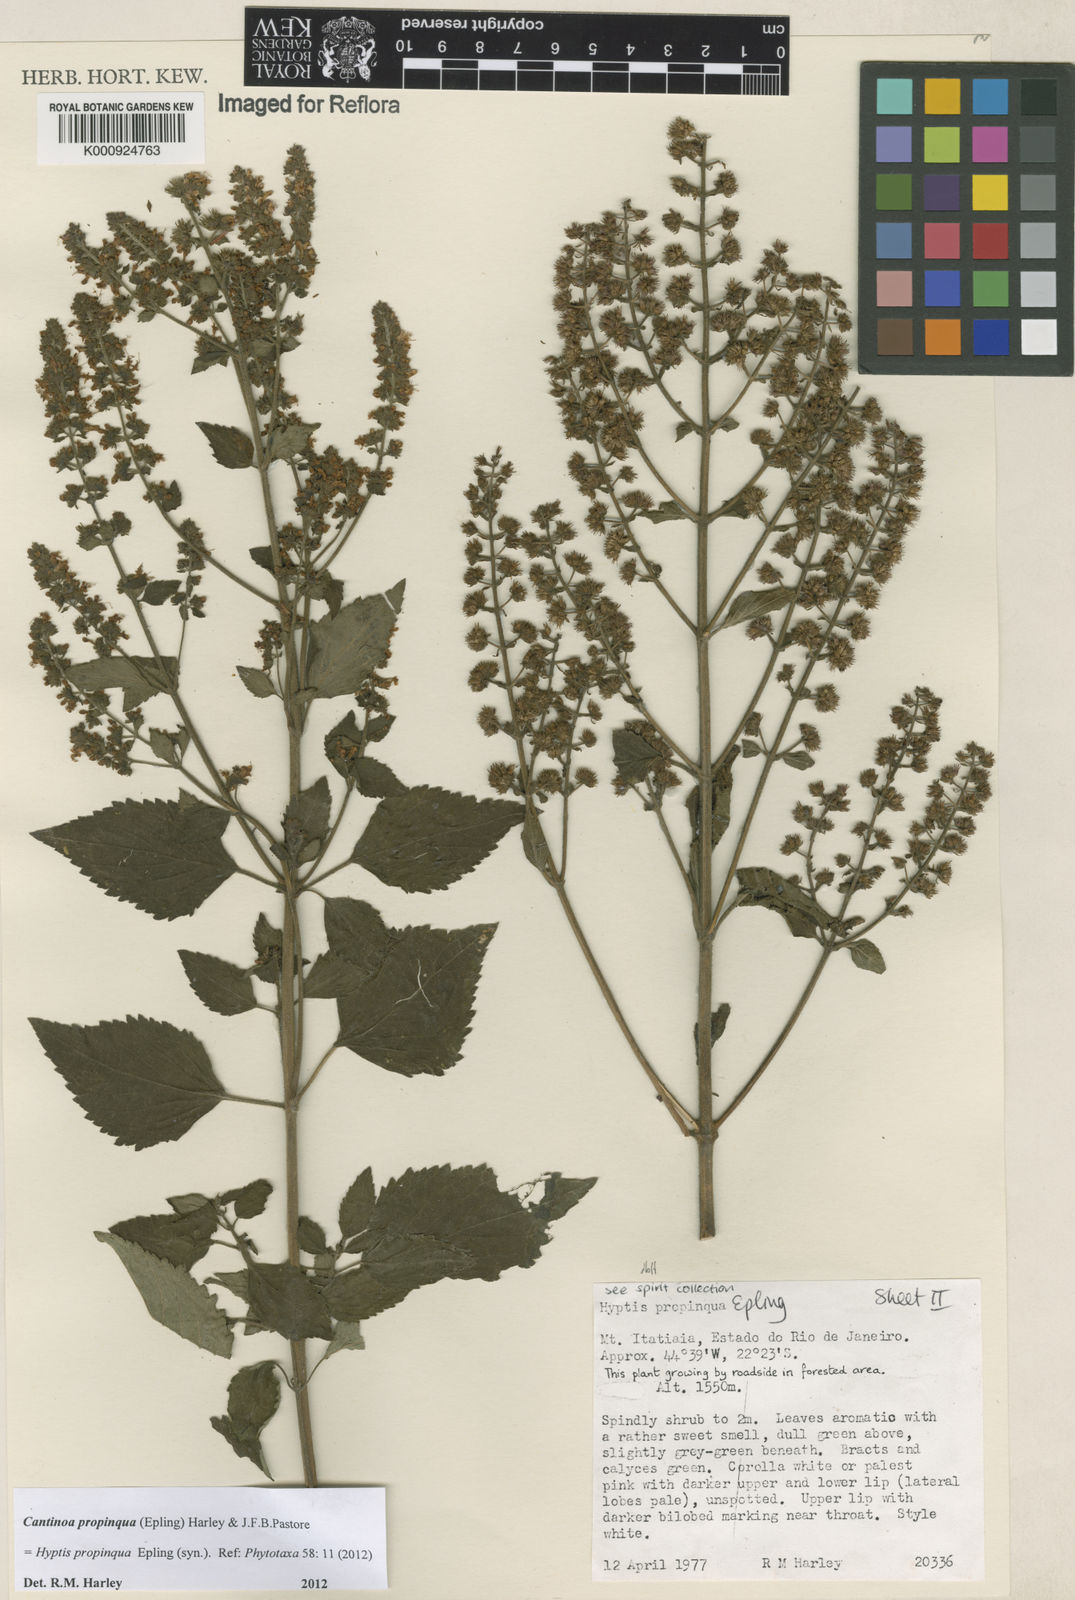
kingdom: Plantae
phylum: Tracheophyta
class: Magnoliopsida
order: Lamiales
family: Lamiaceae
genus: Cantinoa
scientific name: Cantinoa propinqua
